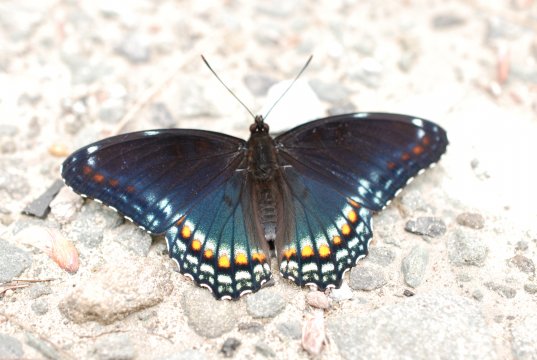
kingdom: Animalia
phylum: Arthropoda
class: Insecta
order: Lepidoptera
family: Nymphalidae
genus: Limenitis
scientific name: Limenitis arthemis
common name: Red-spotted Admiral
